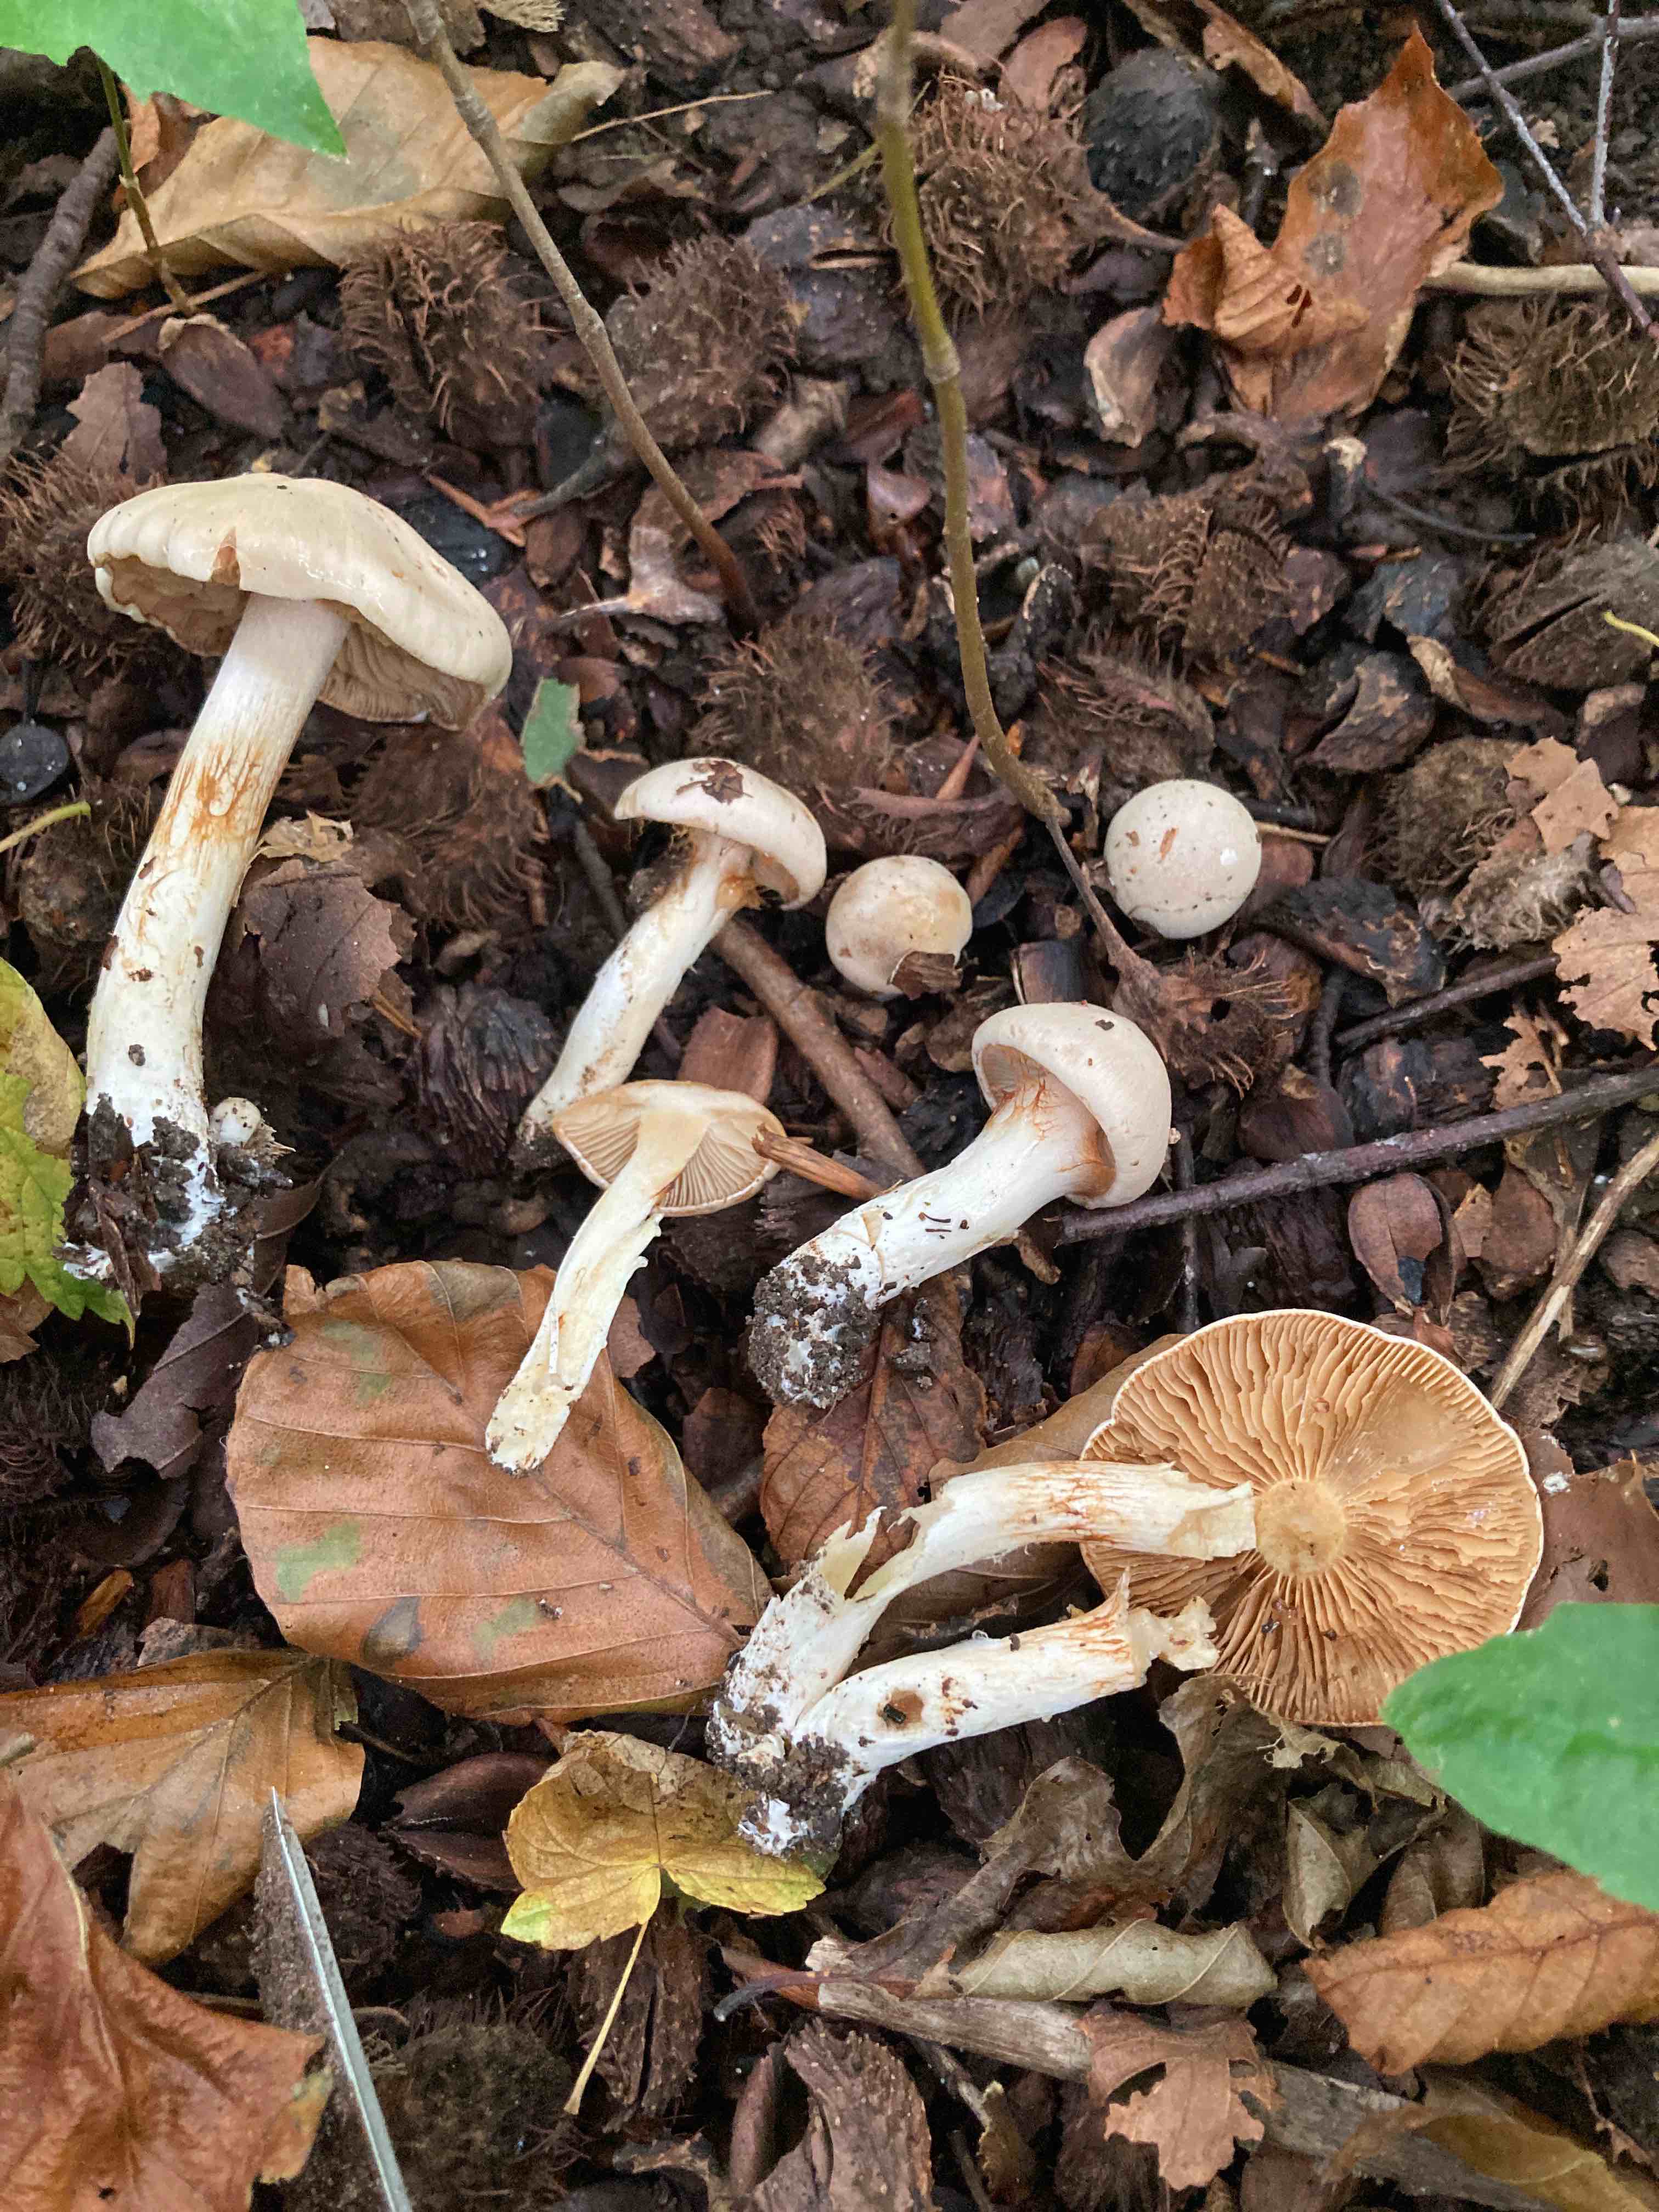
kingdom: Fungi
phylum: Basidiomycota
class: Agaricomycetes
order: Agaricales
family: Cortinariaceae
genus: Thaxterogaster
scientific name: Thaxterogaster barbatus
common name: elfenbens-slørhat
